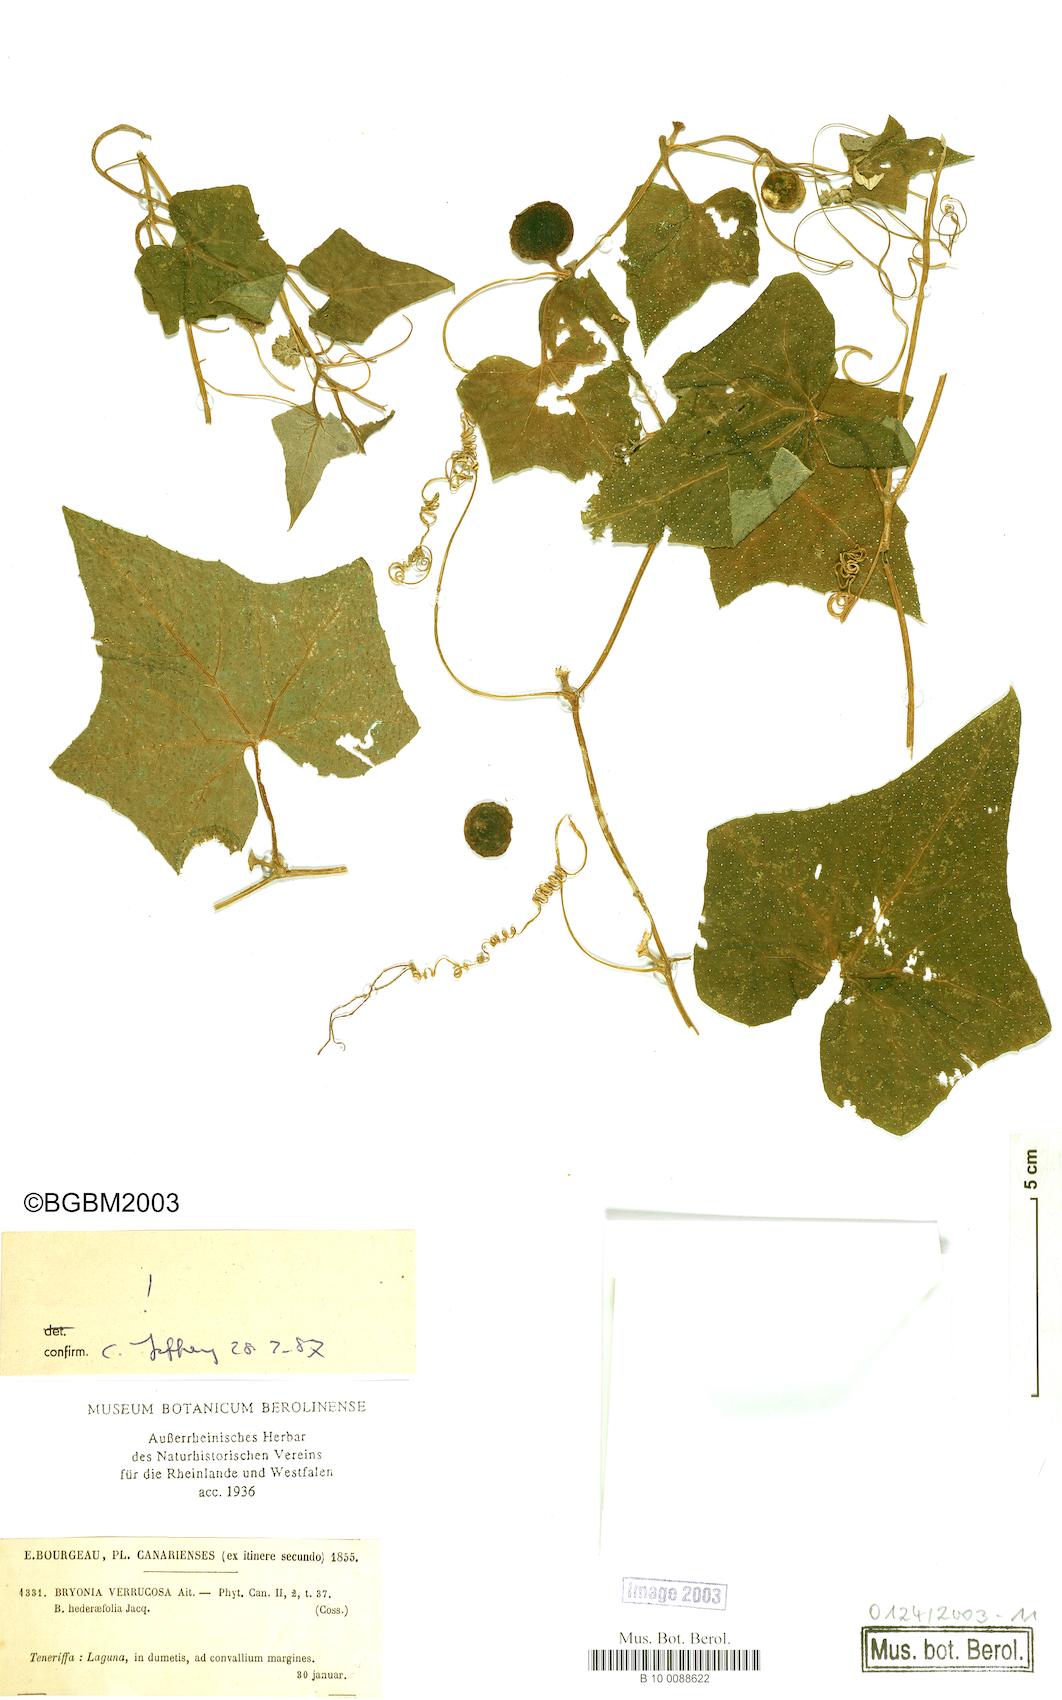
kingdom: Plantae
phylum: Tracheophyta
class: Magnoliopsida
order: Cucurbitales
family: Cucurbitaceae
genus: Bryonia
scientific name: Bryonia verrucosa
